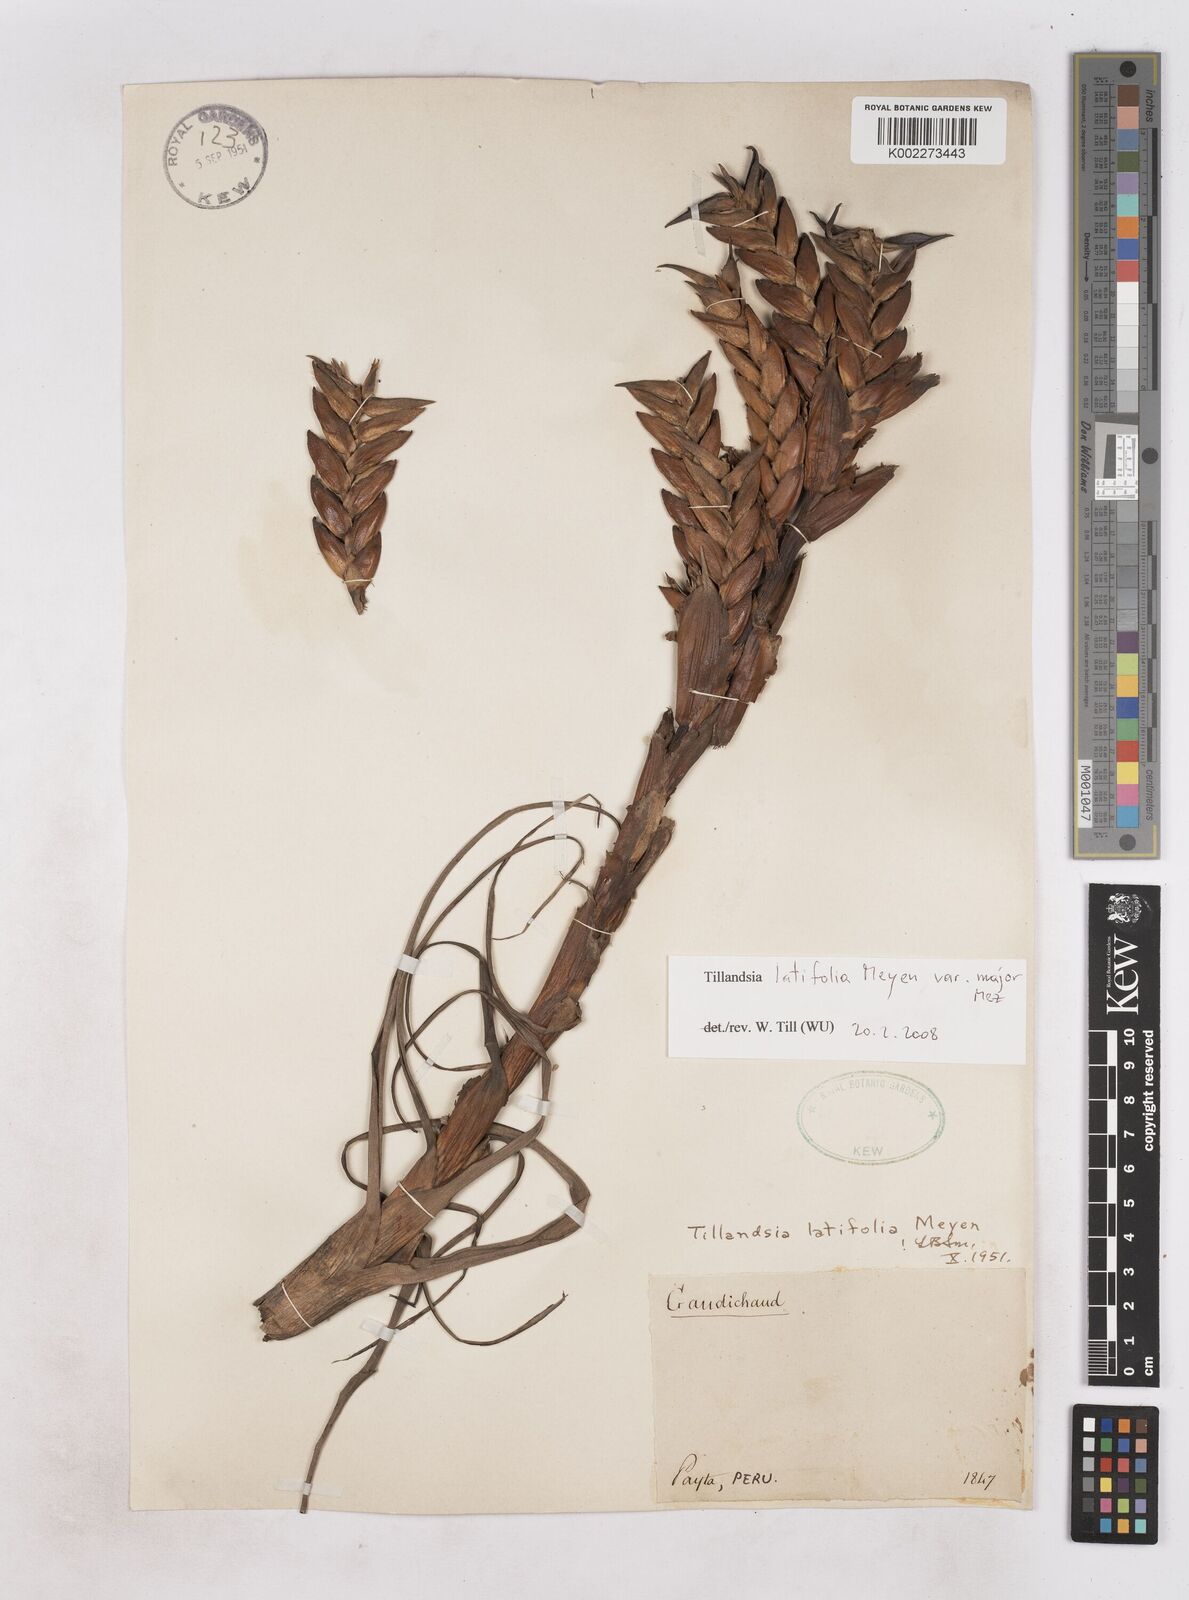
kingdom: Plantae
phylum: Tracheophyta
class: Liliopsida
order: Poales
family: Bromeliaceae
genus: Tillandsia
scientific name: Tillandsia latifolia
